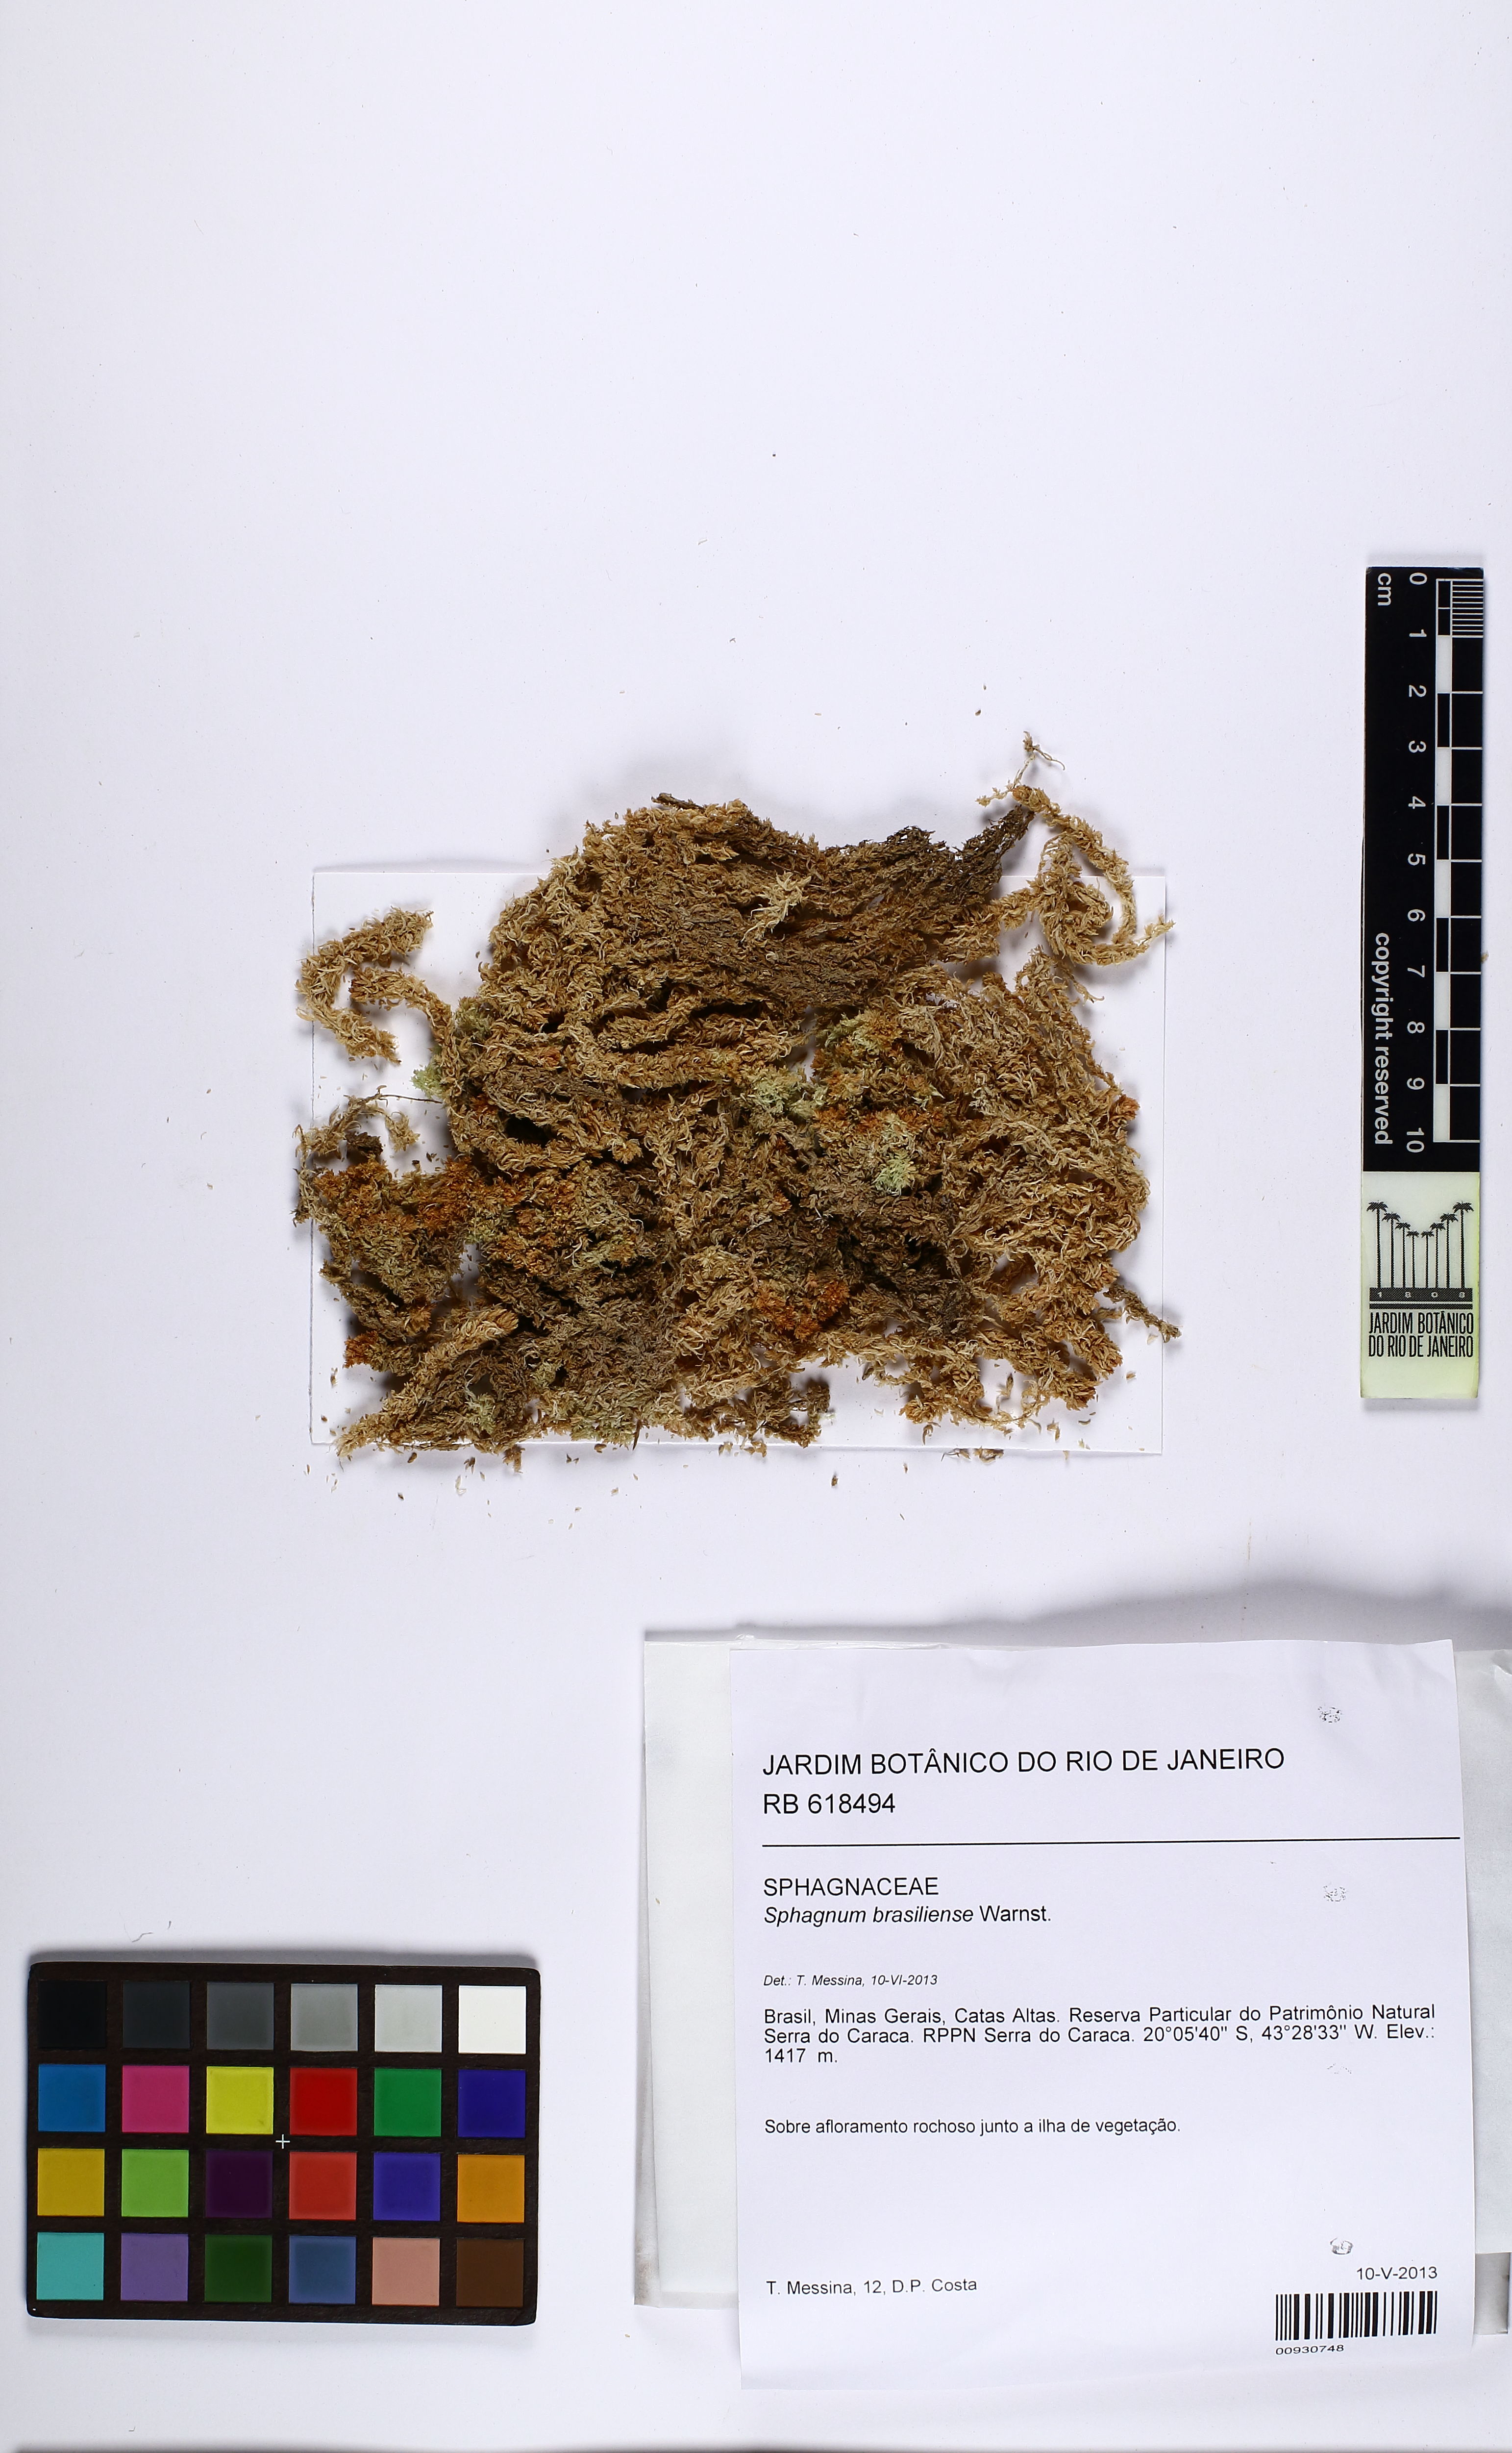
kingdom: Plantae
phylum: Bryophyta
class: Sphagnopsida
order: Sphagnales
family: Sphagnaceae
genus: Sphagnum
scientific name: Sphagnum brasiliense
